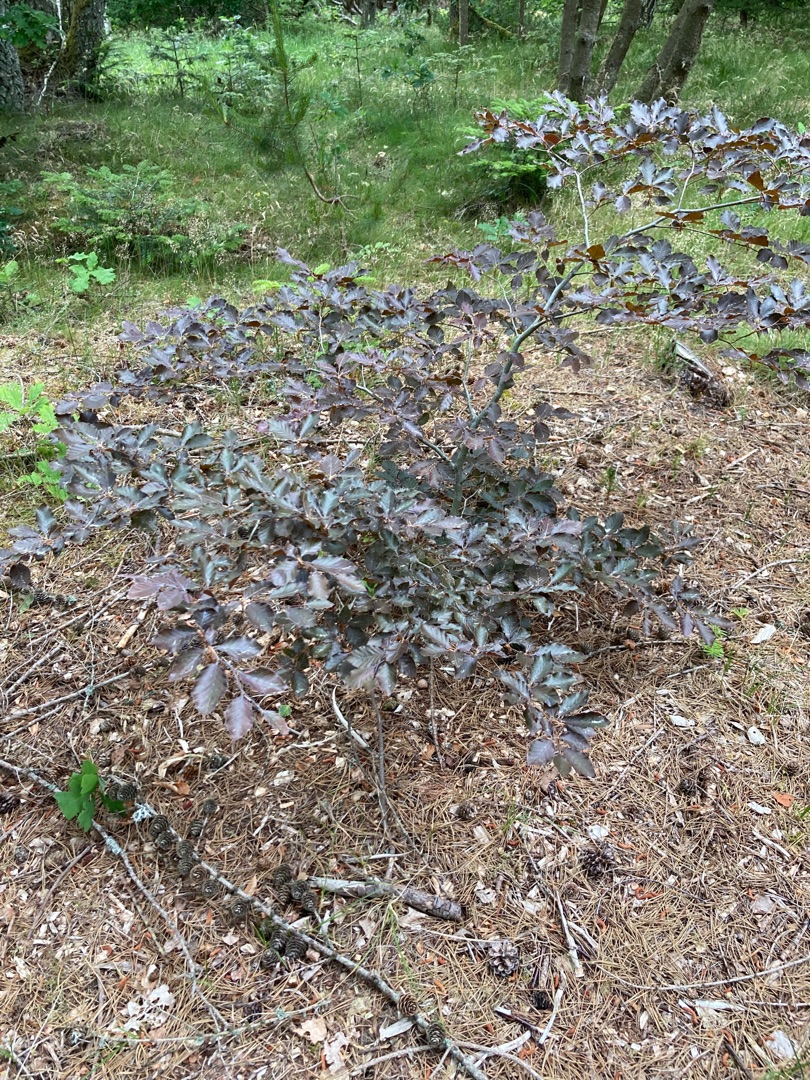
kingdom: Plantae
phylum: Tracheophyta
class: Magnoliopsida
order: Fagales
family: Fagaceae
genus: Fagus
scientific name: Fagus sylvatica
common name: Bøg
